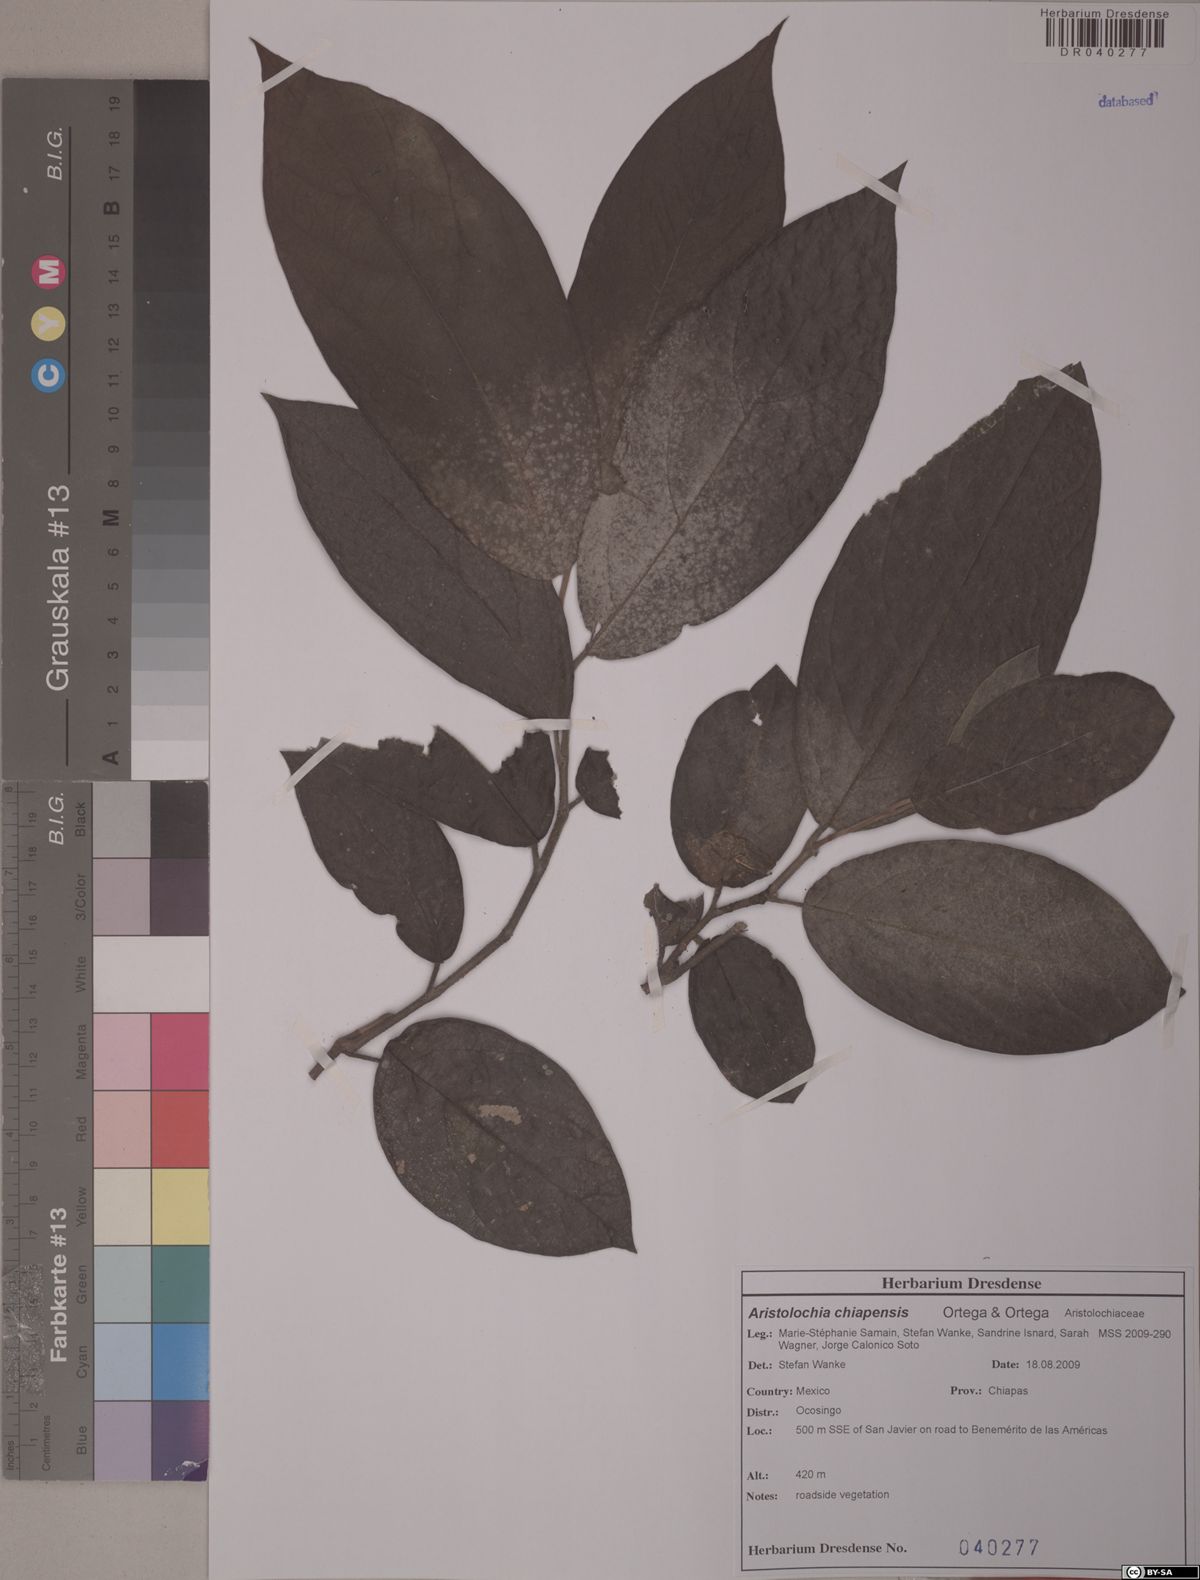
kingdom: Plantae
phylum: Tracheophyta
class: Magnoliopsida
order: Piperales
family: Aristolochiaceae
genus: Isotrema
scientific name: Isotrema paracletum
